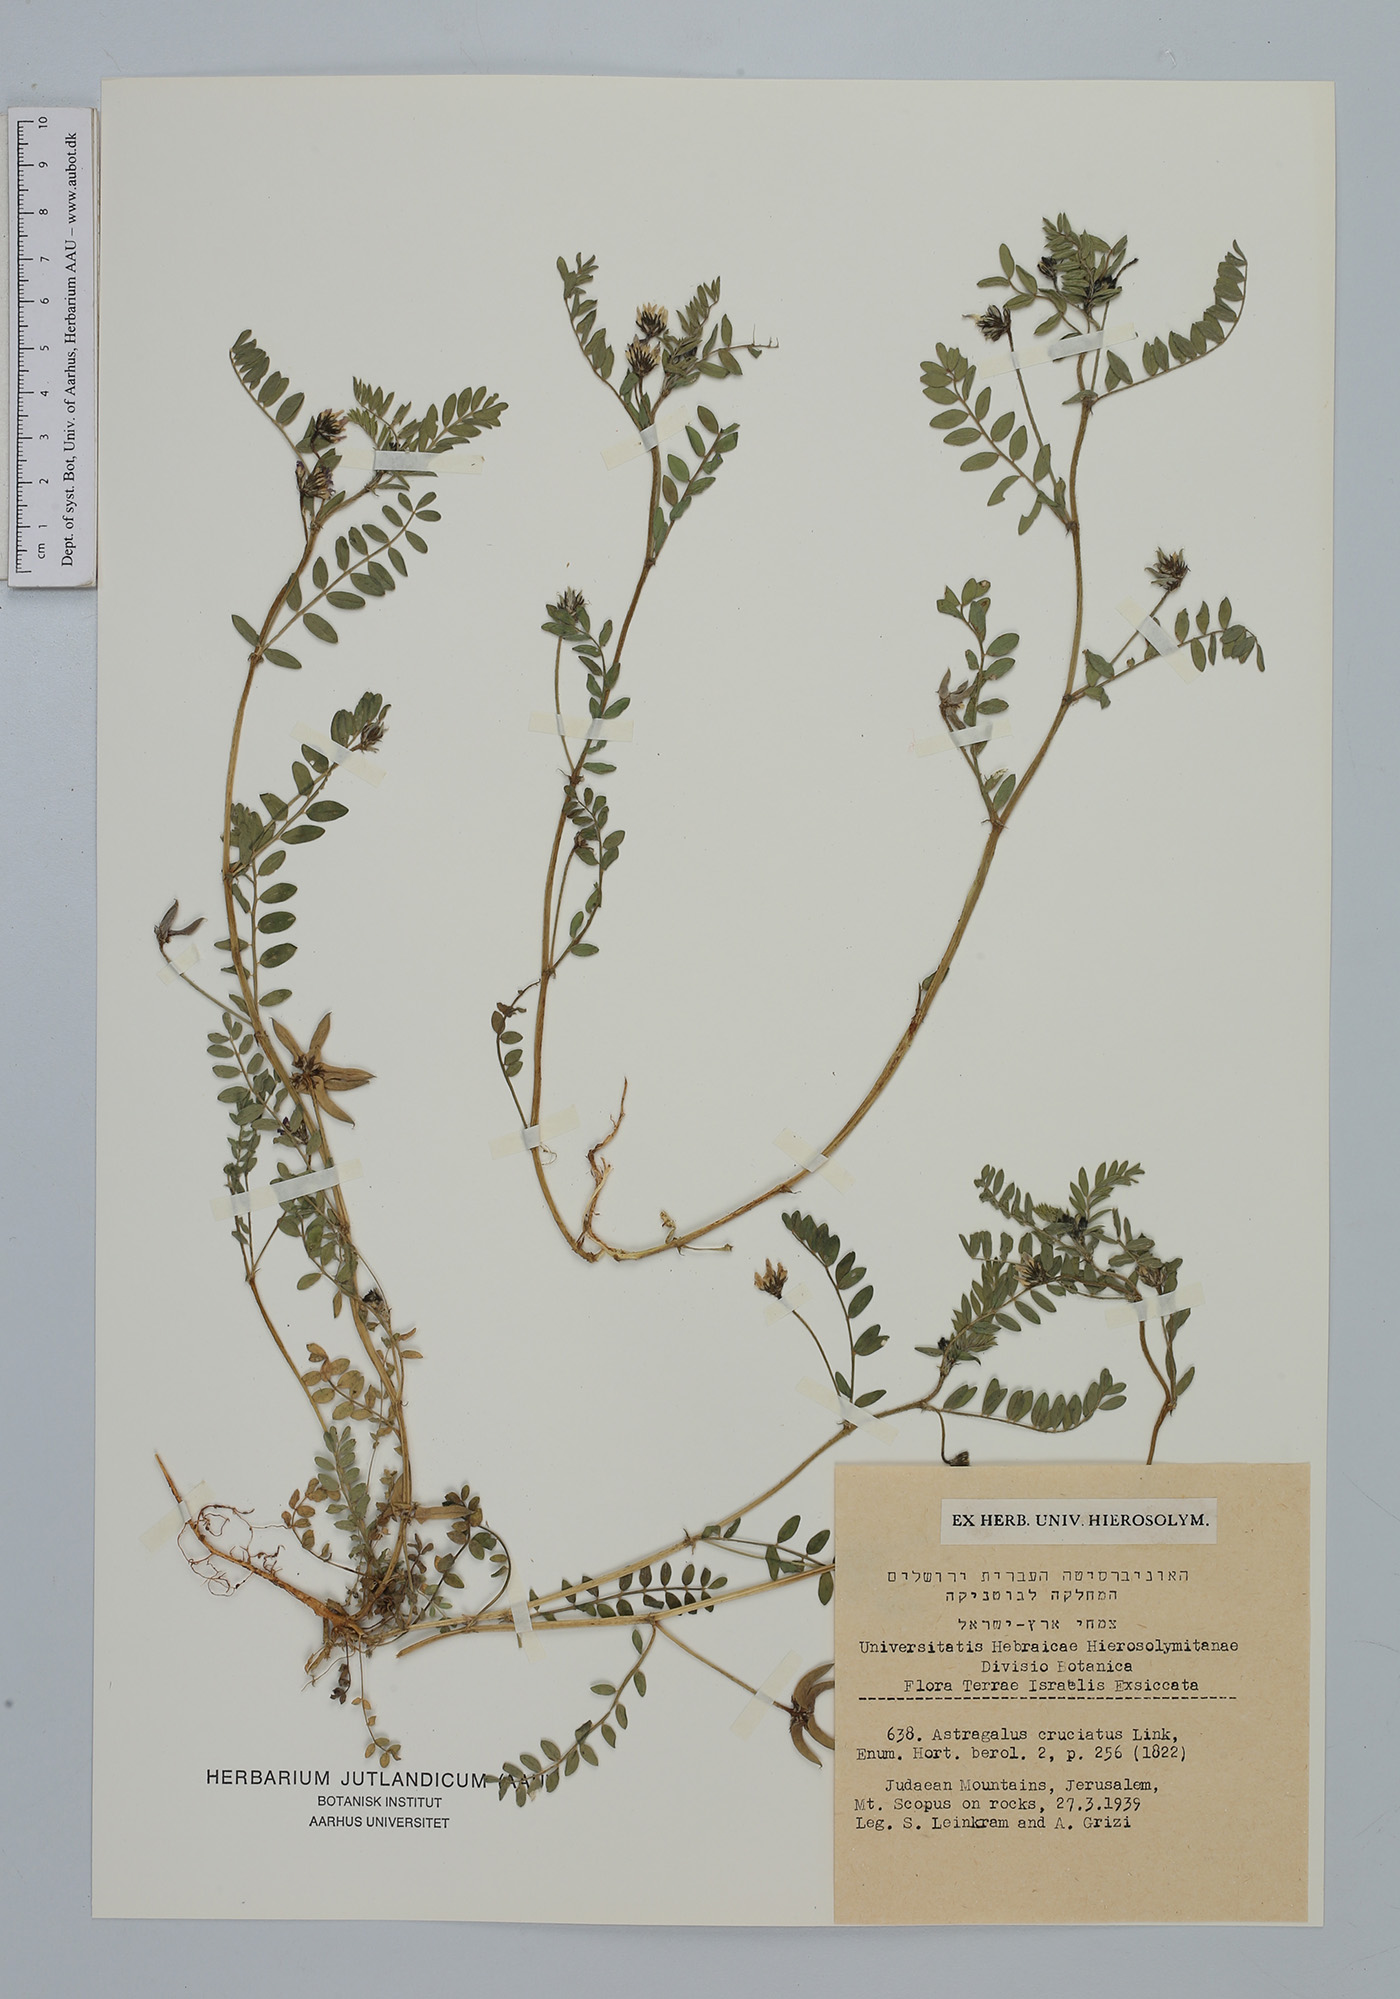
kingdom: Plantae
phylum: Tracheophyta
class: Magnoliopsida
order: Fabales
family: Fabaceae
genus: Astragalus
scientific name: Astragalus crenatus
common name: Milk vetch
